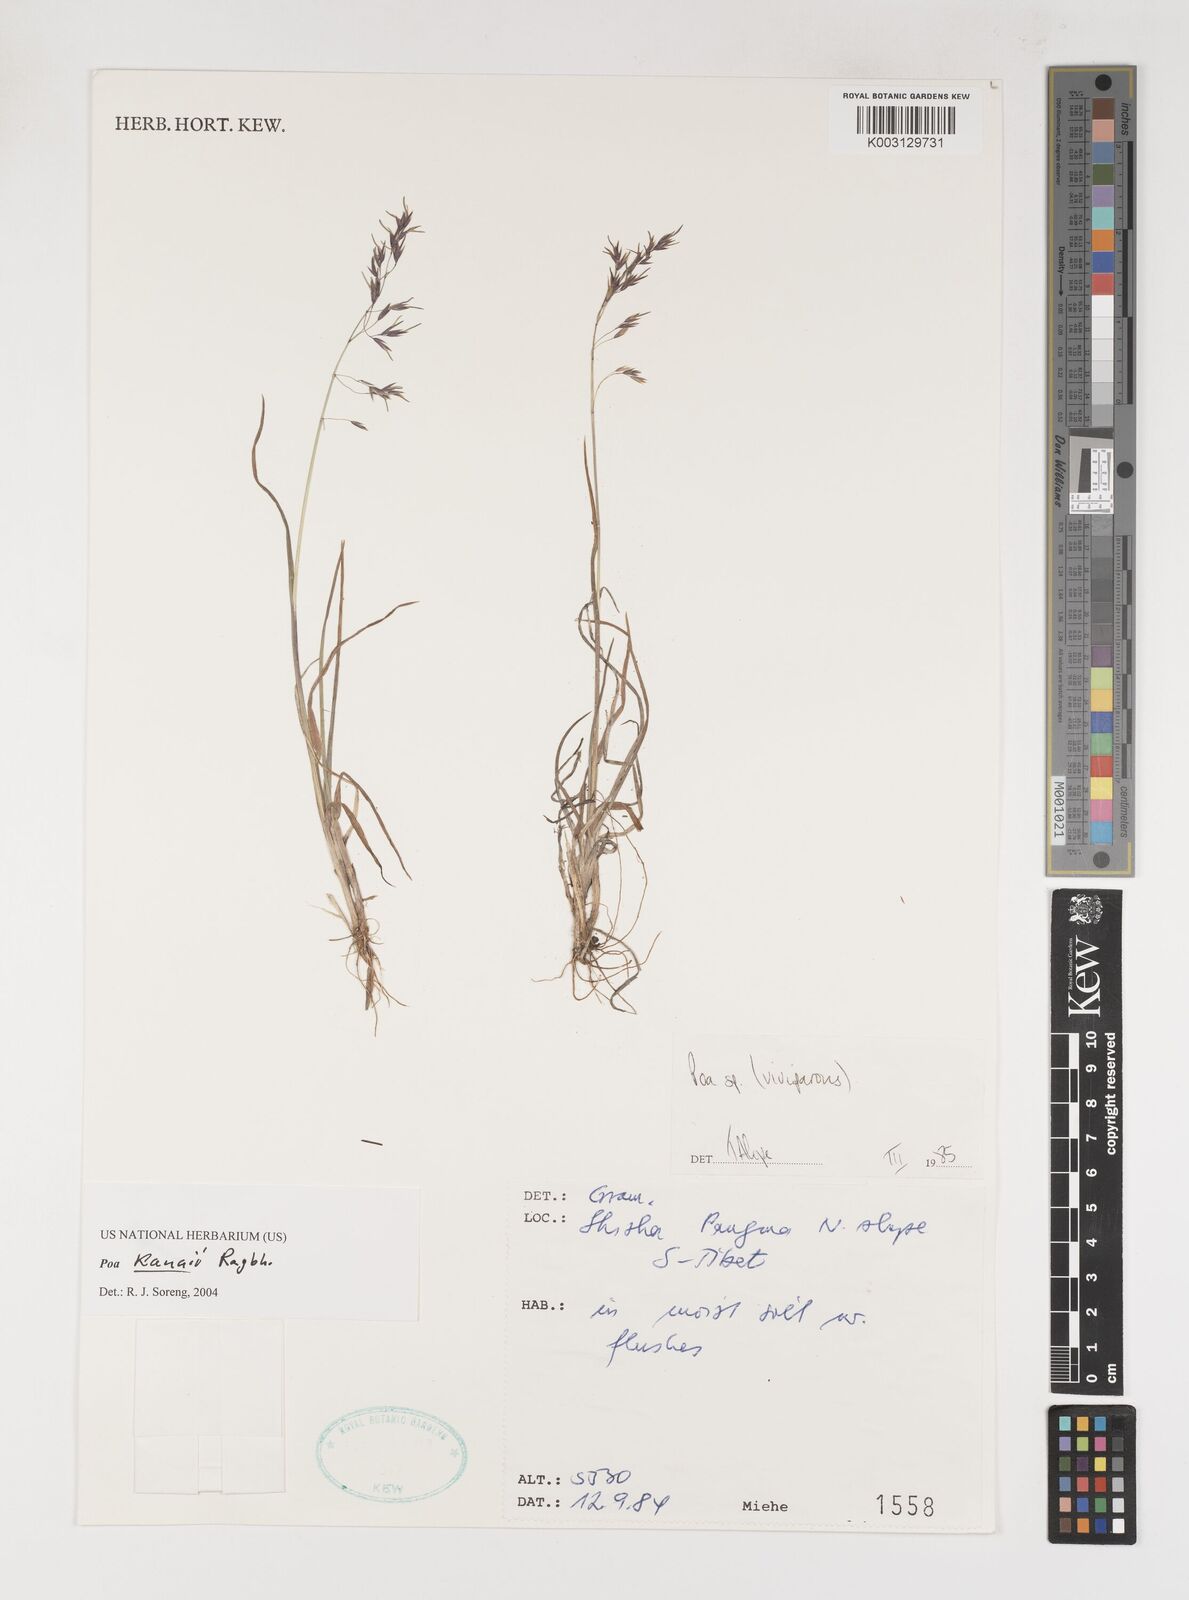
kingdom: Plantae
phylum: Tracheophyta
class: Liliopsida
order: Poales
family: Poaceae
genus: Poa
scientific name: Poa pagophila
